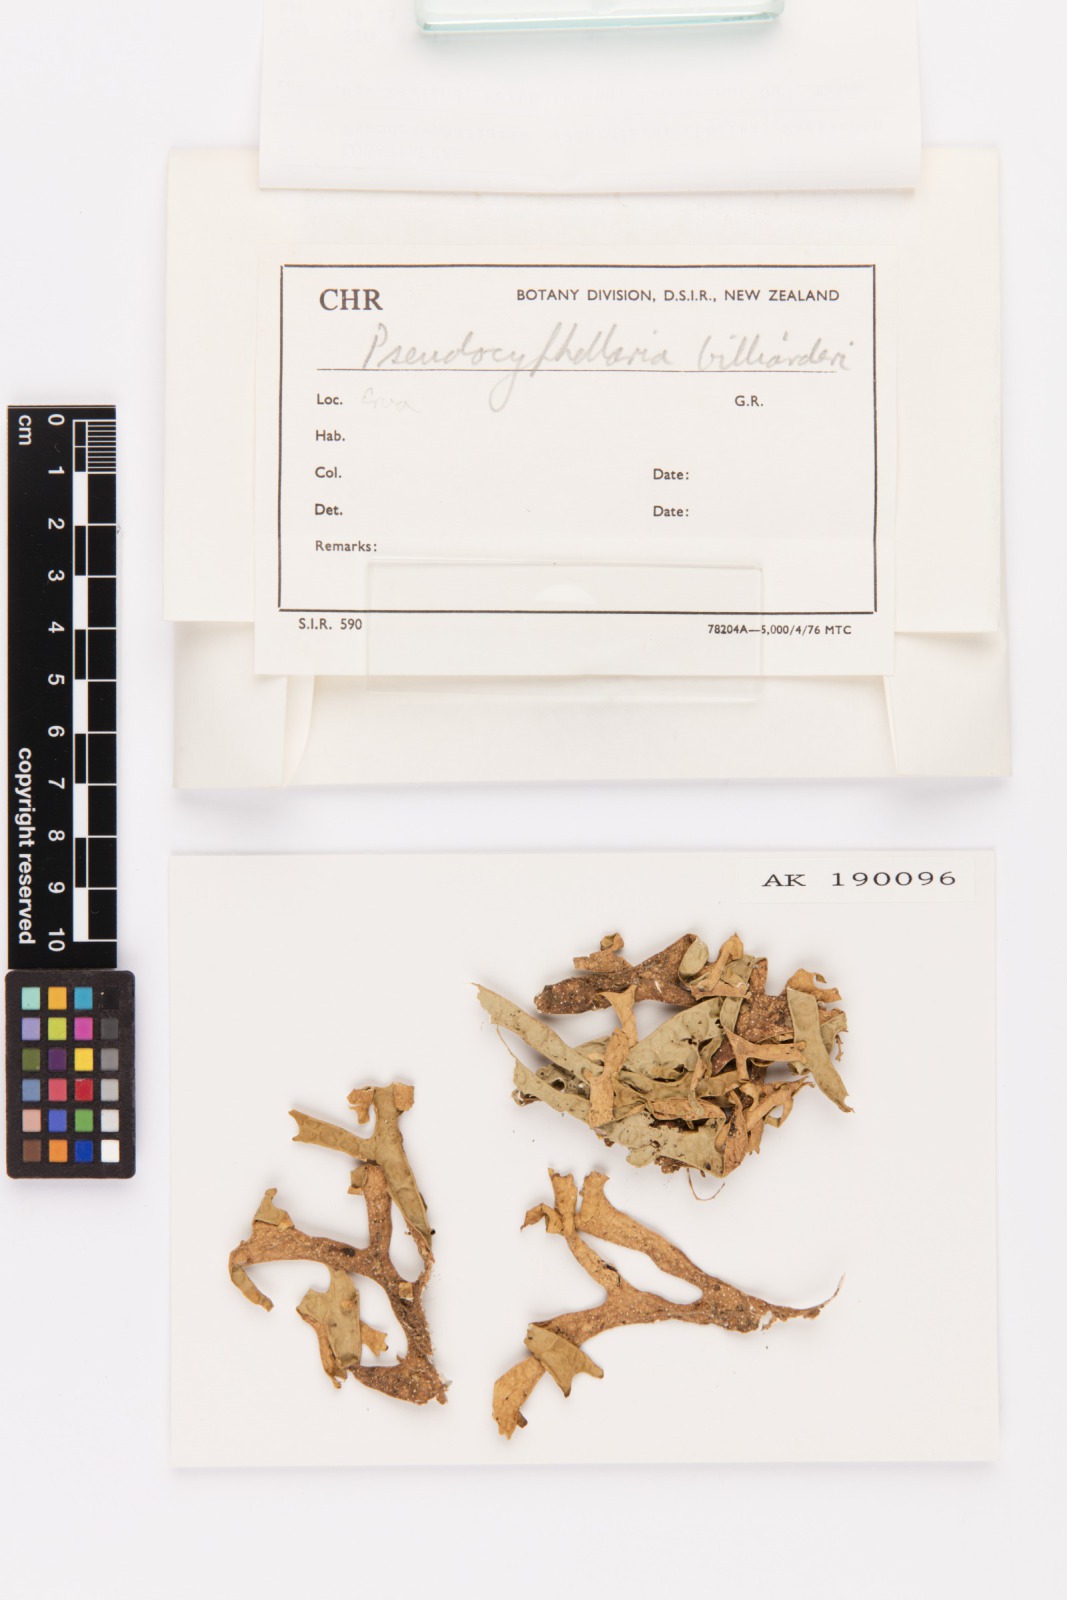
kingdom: Fungi
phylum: Ascomycota
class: Lecanoromycetes
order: Peltigerales
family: Lobariaceae
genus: Pseudocyphellaria
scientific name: Pseudocyphellaria billardierei
